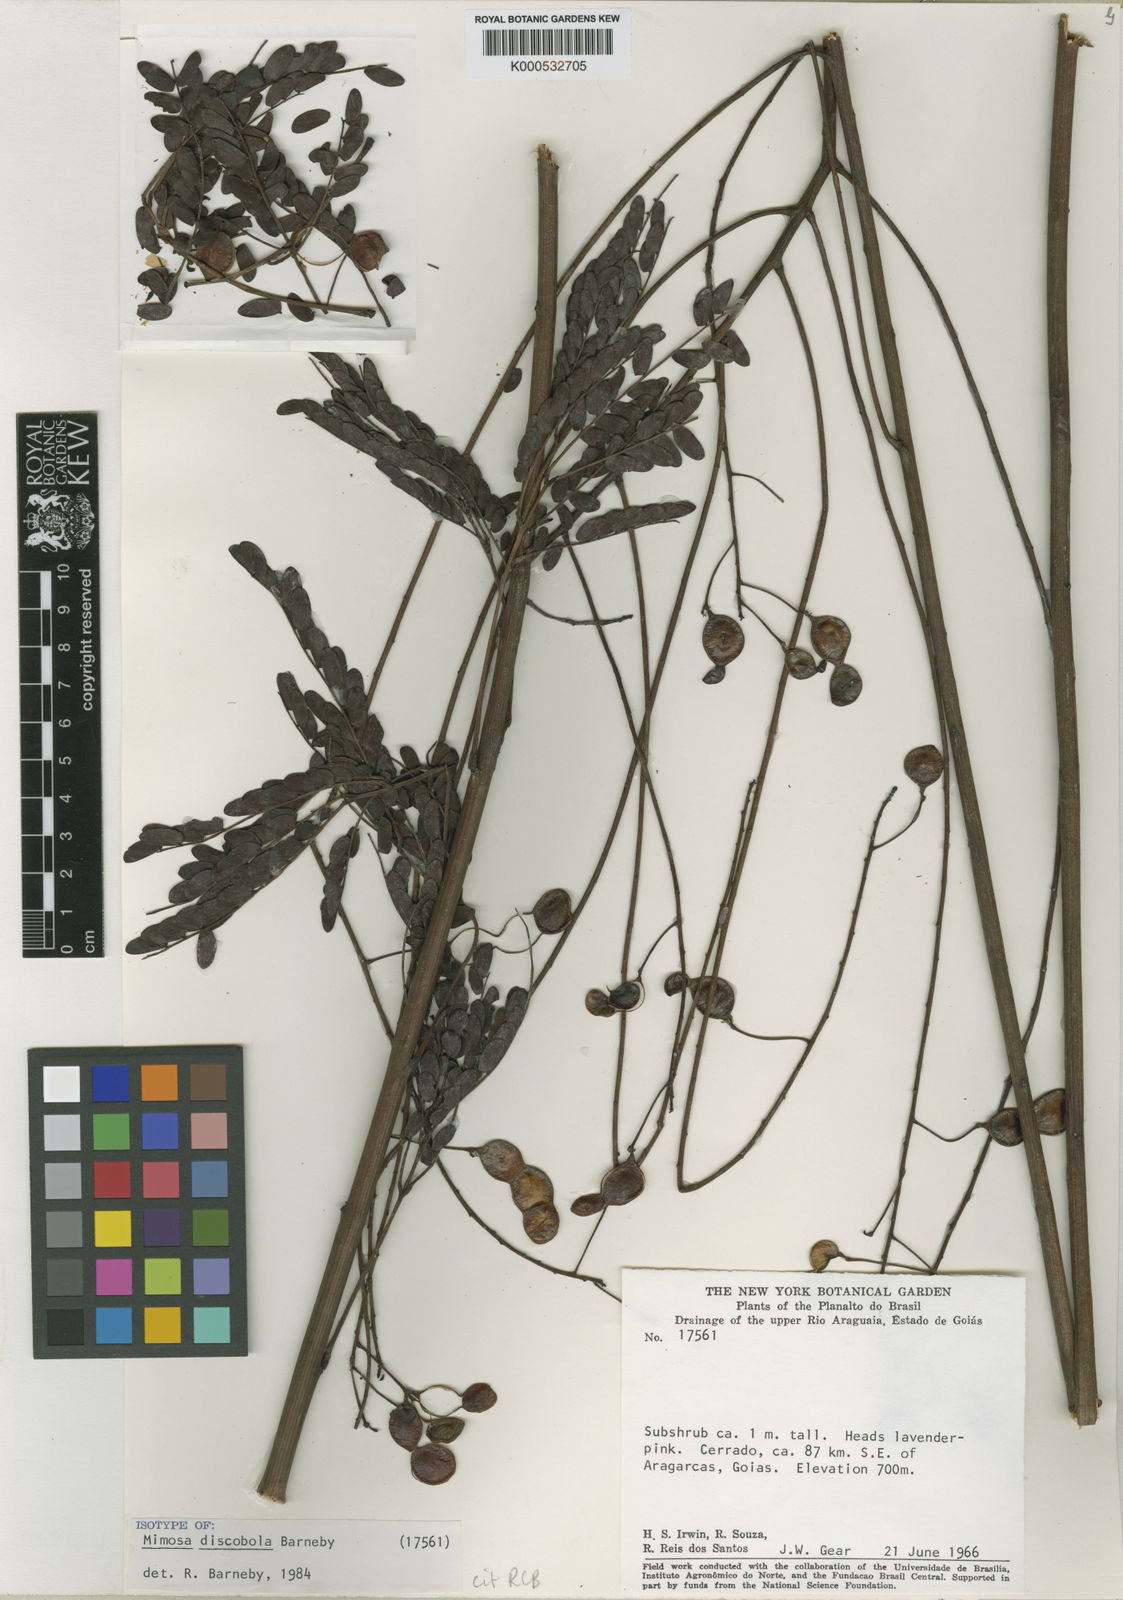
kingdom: Plantae
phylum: Tracheophyta
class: Magnoliopsida
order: Fabales
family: Fabaceae
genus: Mimosa
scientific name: Mimosa discobola
